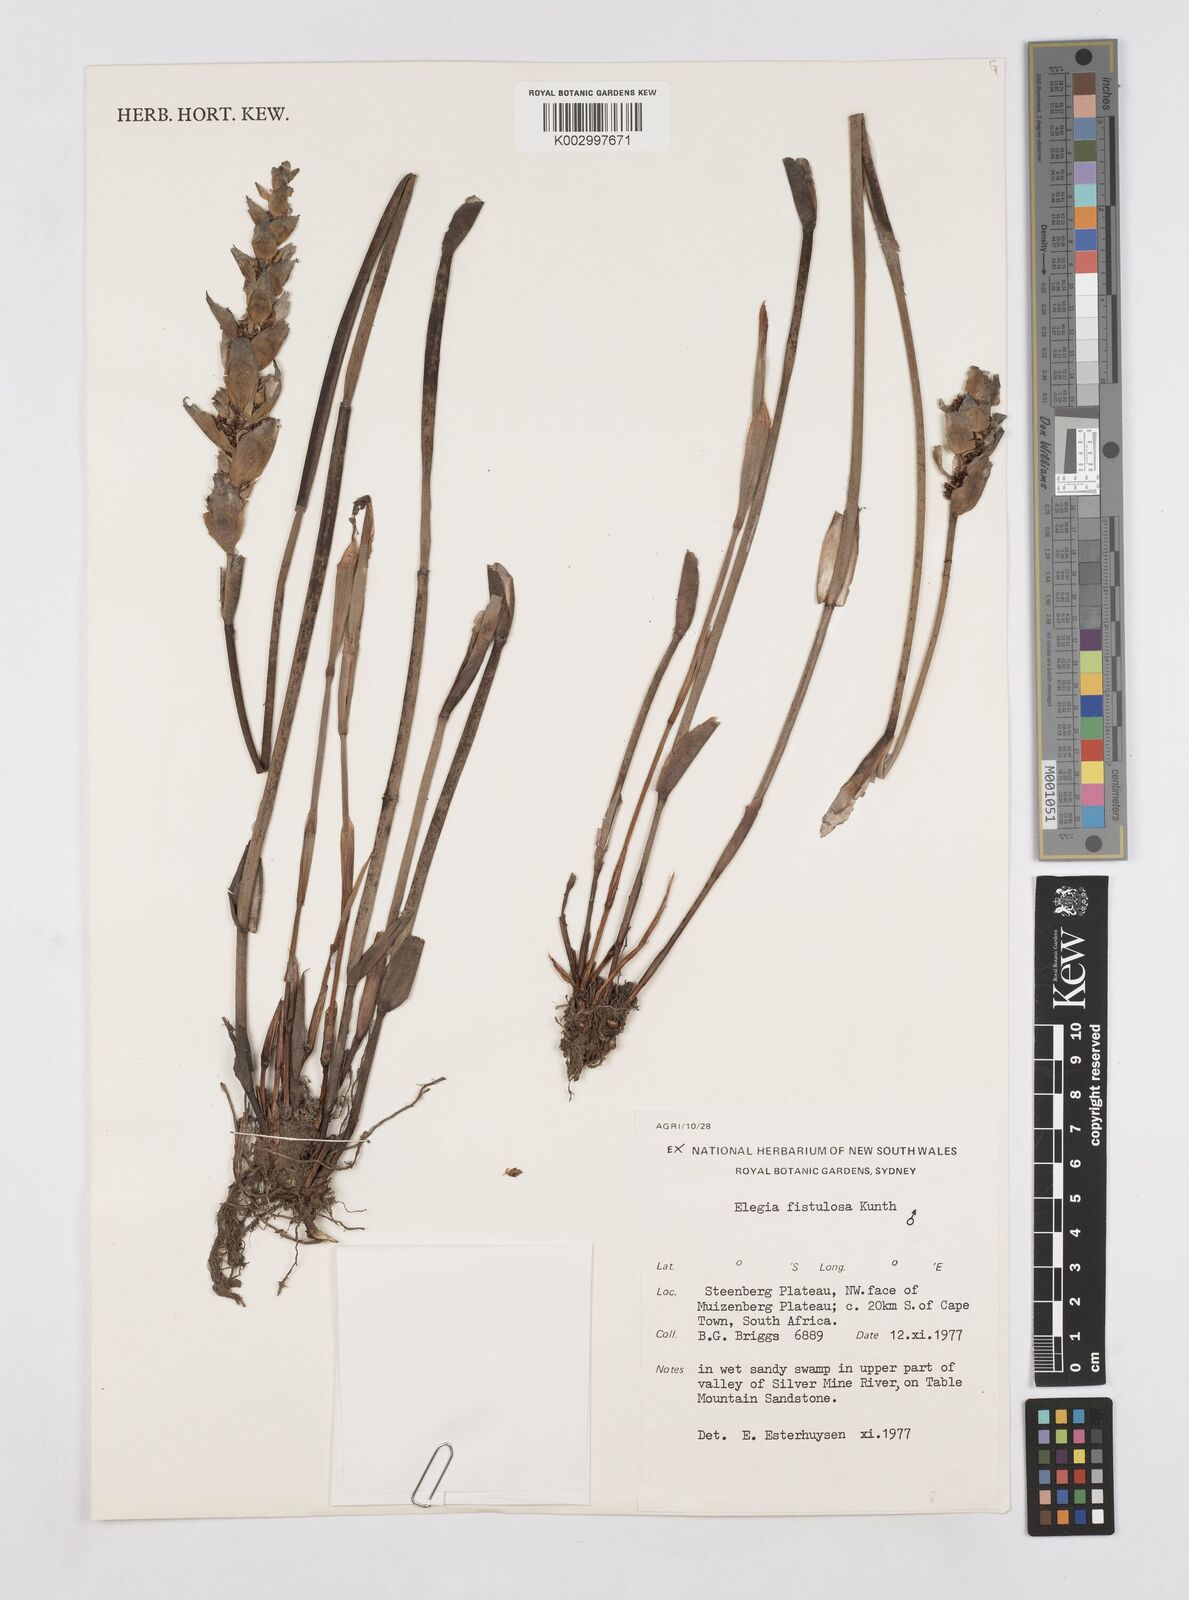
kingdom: Plantae
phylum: Tracheophyta
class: Liliopsida
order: Poales
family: Restionaceae
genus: Elegia
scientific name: Elegia fistulosa
